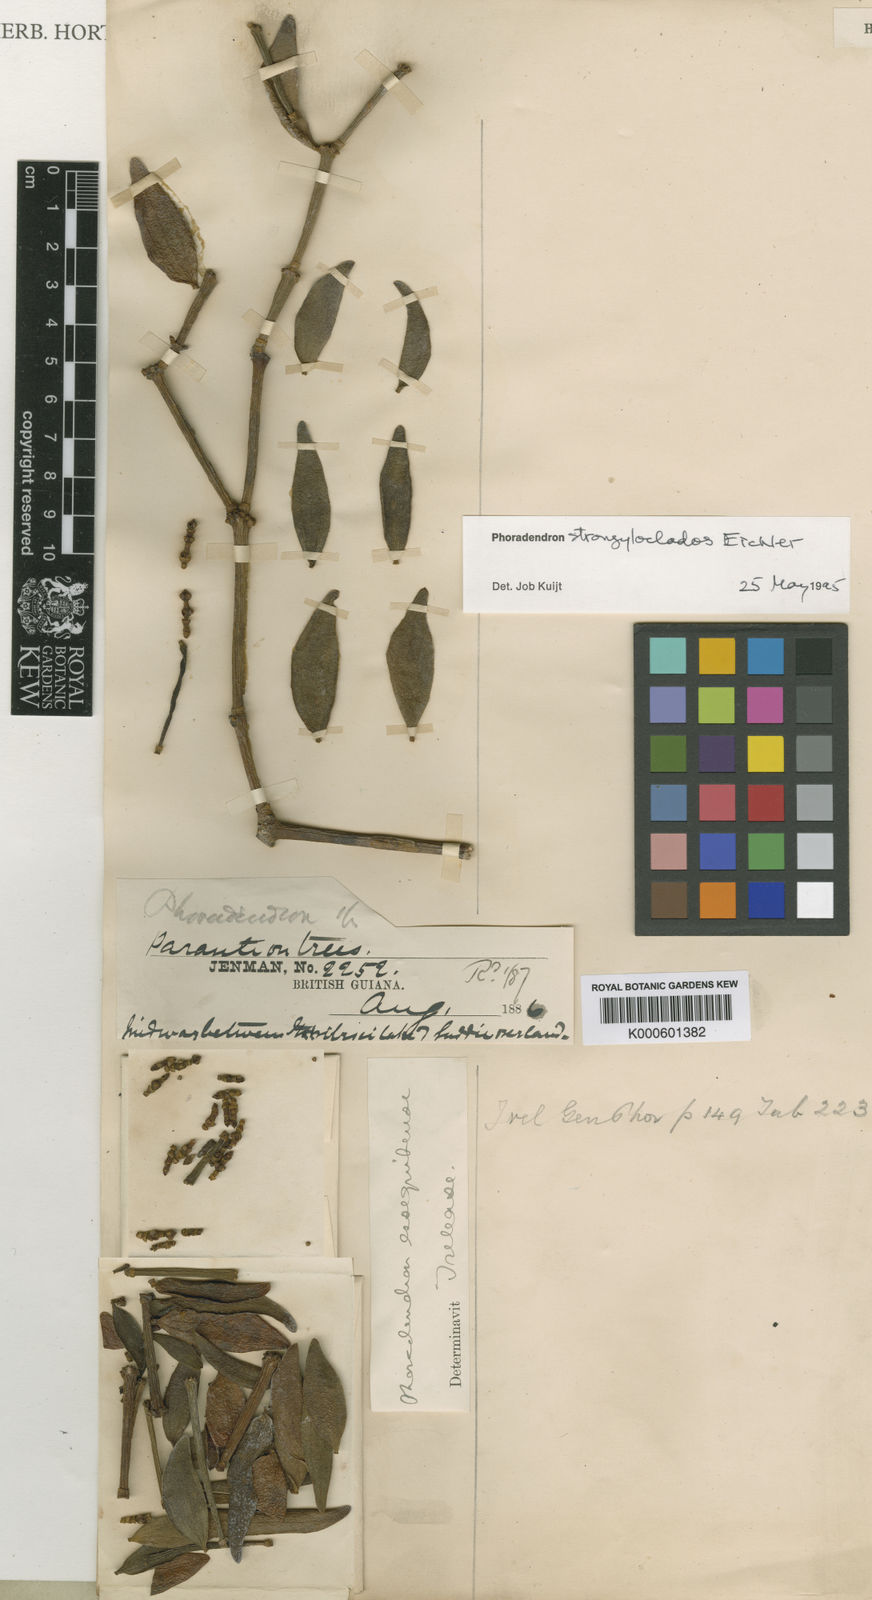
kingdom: Plantae
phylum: Tracheophyta
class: Magnoliopsida
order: Santalales
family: Viscaceae
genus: Phoradendron
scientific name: Phoradendron strongyloclados
